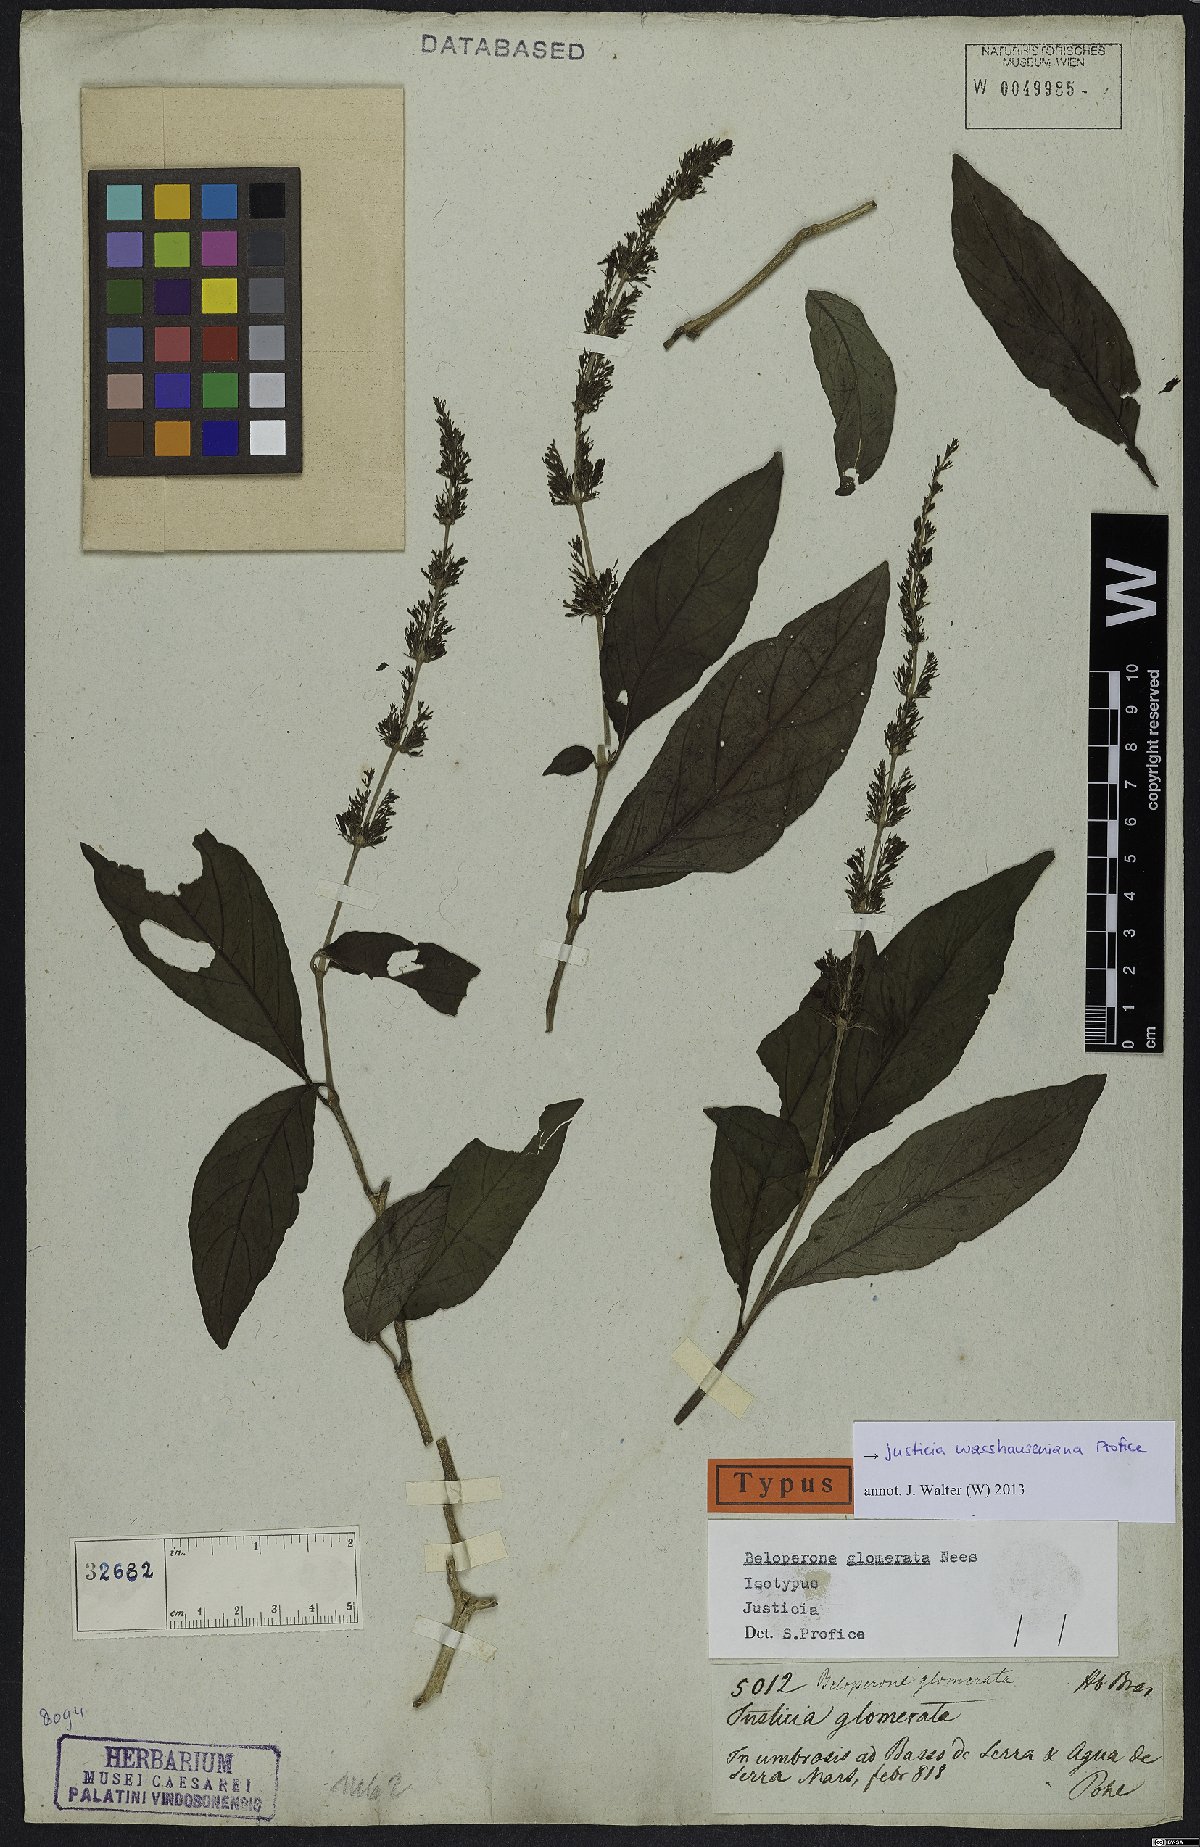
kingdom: Plantae
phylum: Tracheophyta
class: Magnoliopsida
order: Lamiales
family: Acanthaceae
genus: Justicia
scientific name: Justicia wasshauseniana
